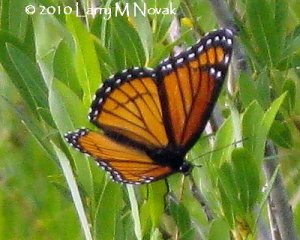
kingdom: Animalia
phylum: Arthropoda
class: Insecta
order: Lepidoptera
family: Nymphalidae
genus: Limenitis
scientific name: Limenitis archippus
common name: Viceroy
